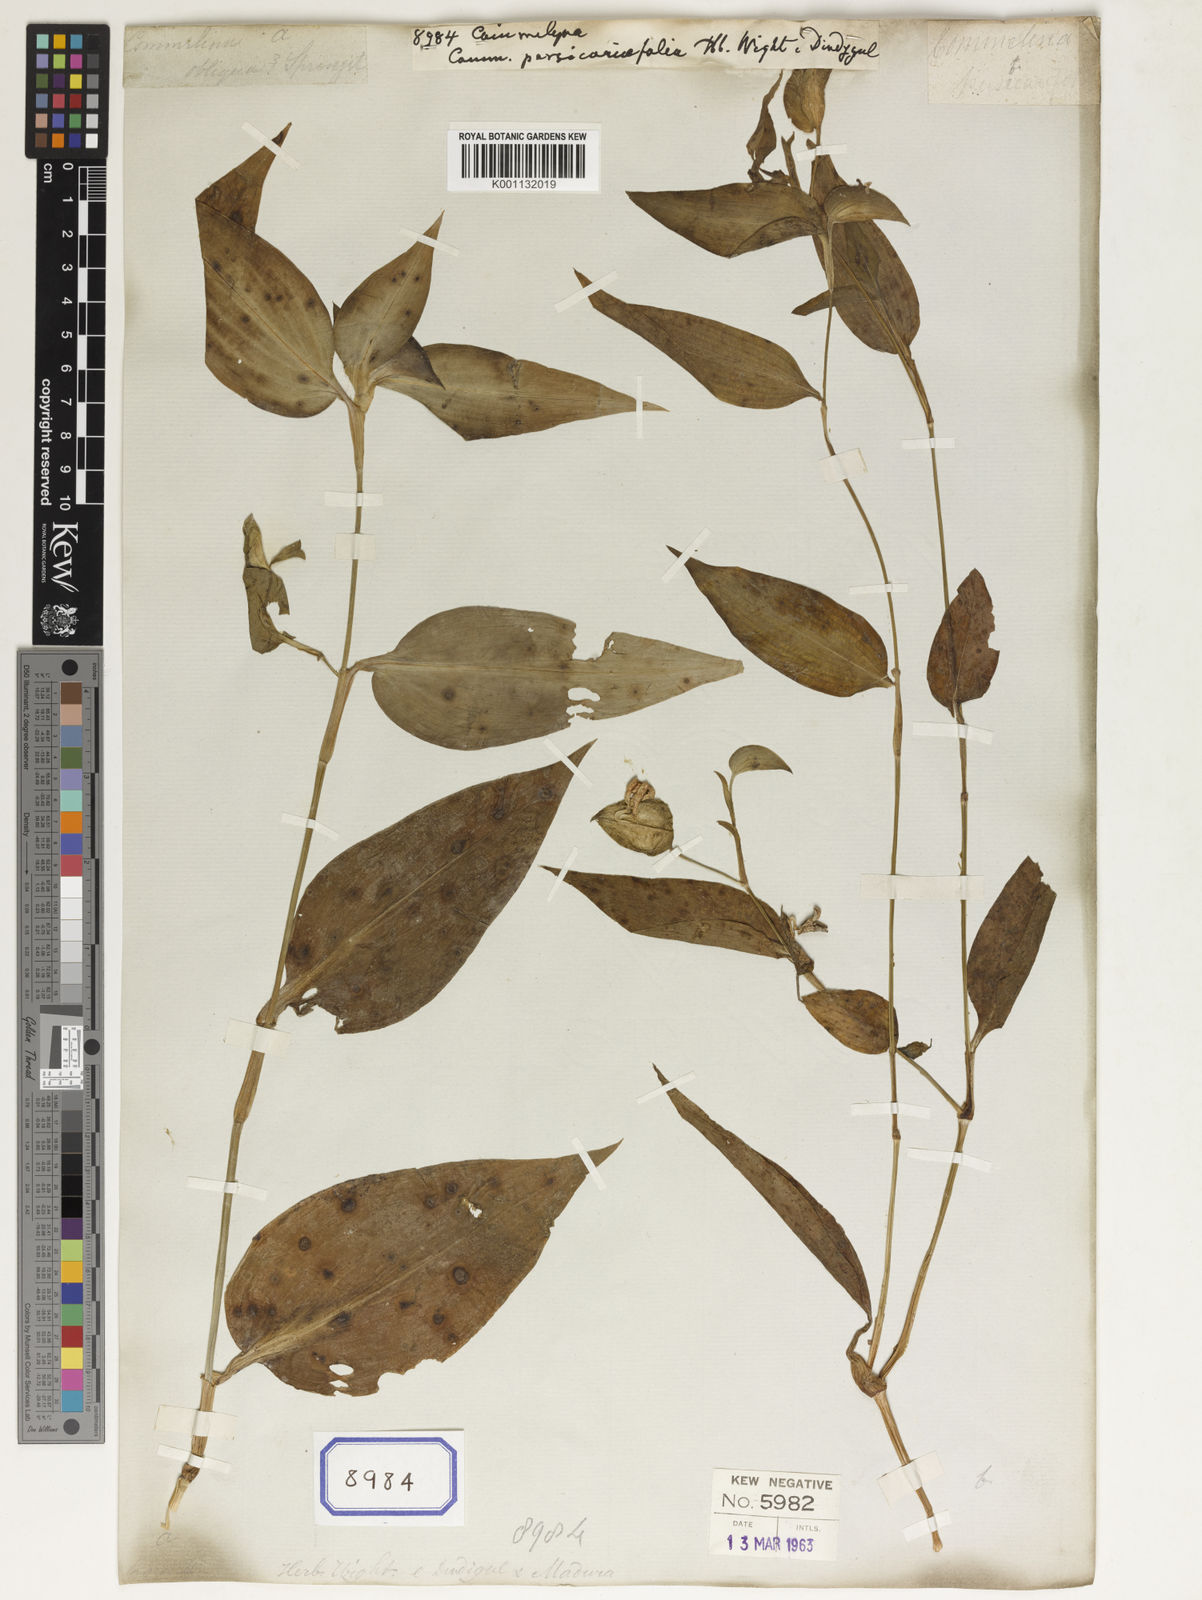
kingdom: Plantae
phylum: Tracheophyta
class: Liliopsida
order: Commelinales
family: Commelinaceae
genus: Commelina
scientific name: Commelina
